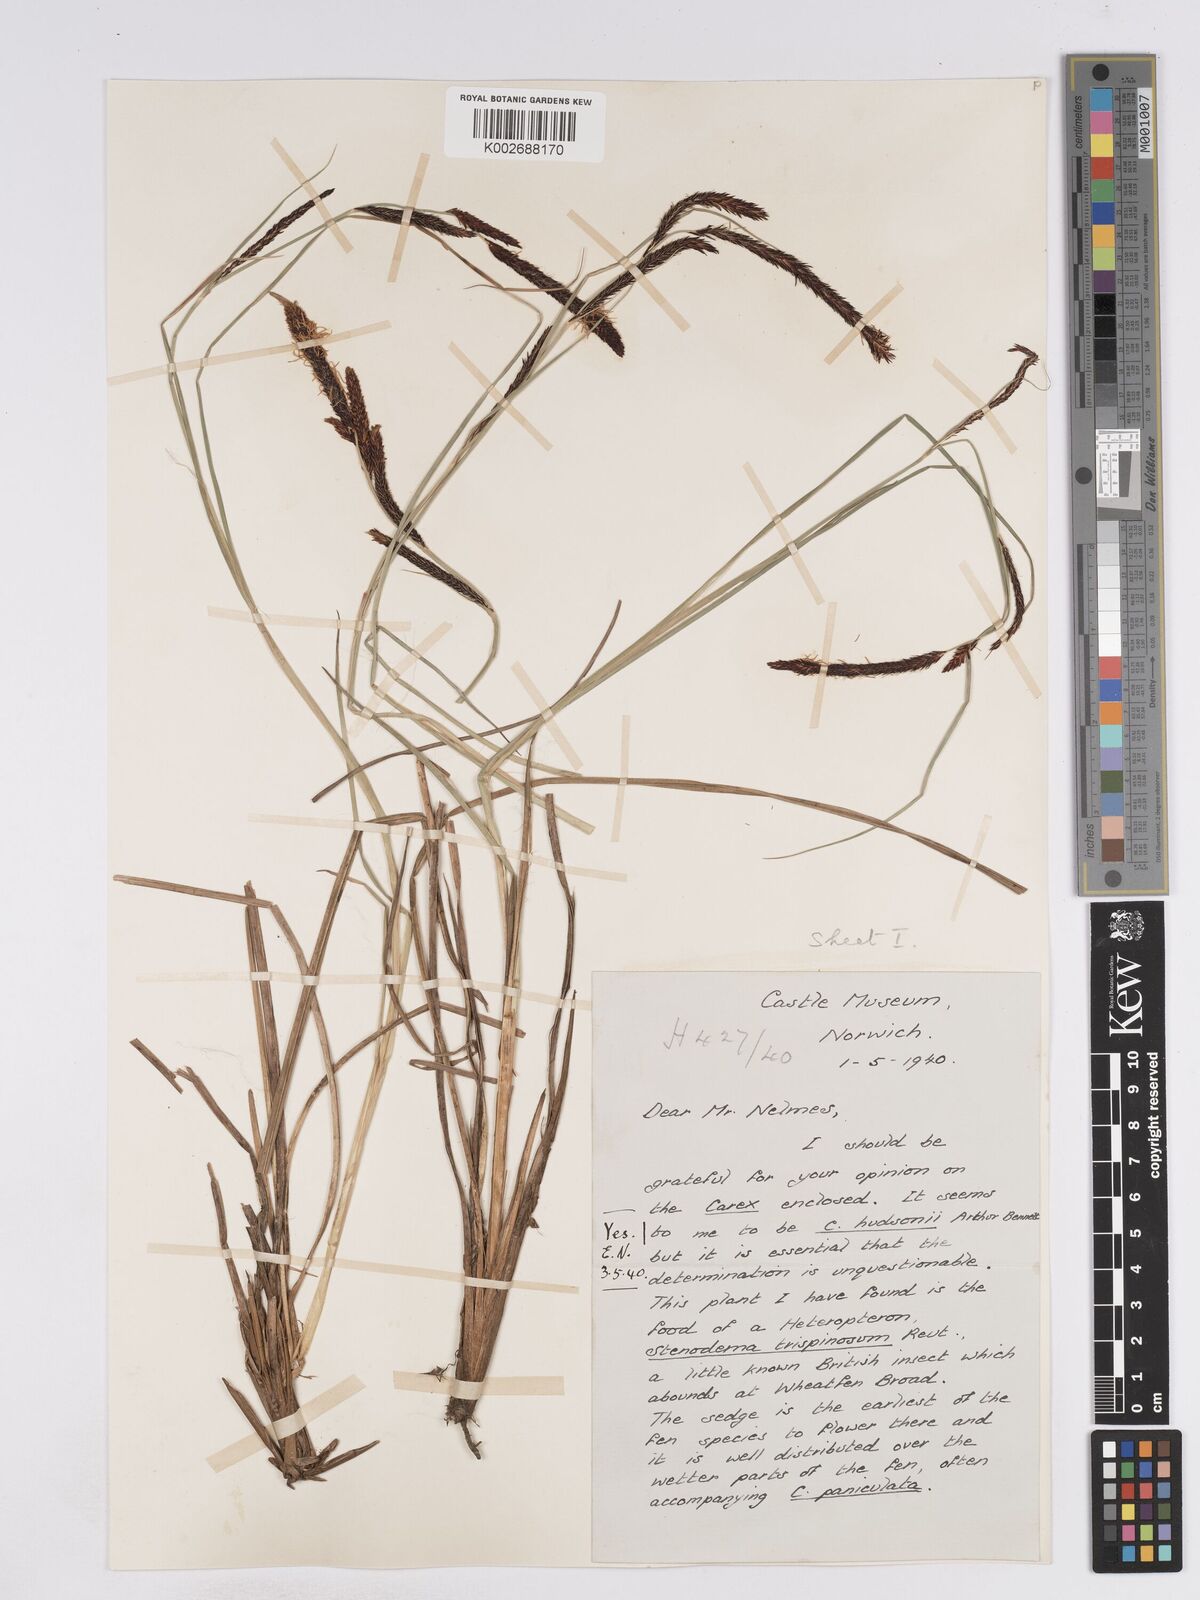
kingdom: Plantae
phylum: Tracheophyta
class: Liliopsida
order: Poales
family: Cyperaceae
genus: Carex
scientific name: Carex elata
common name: Tufted sedge
